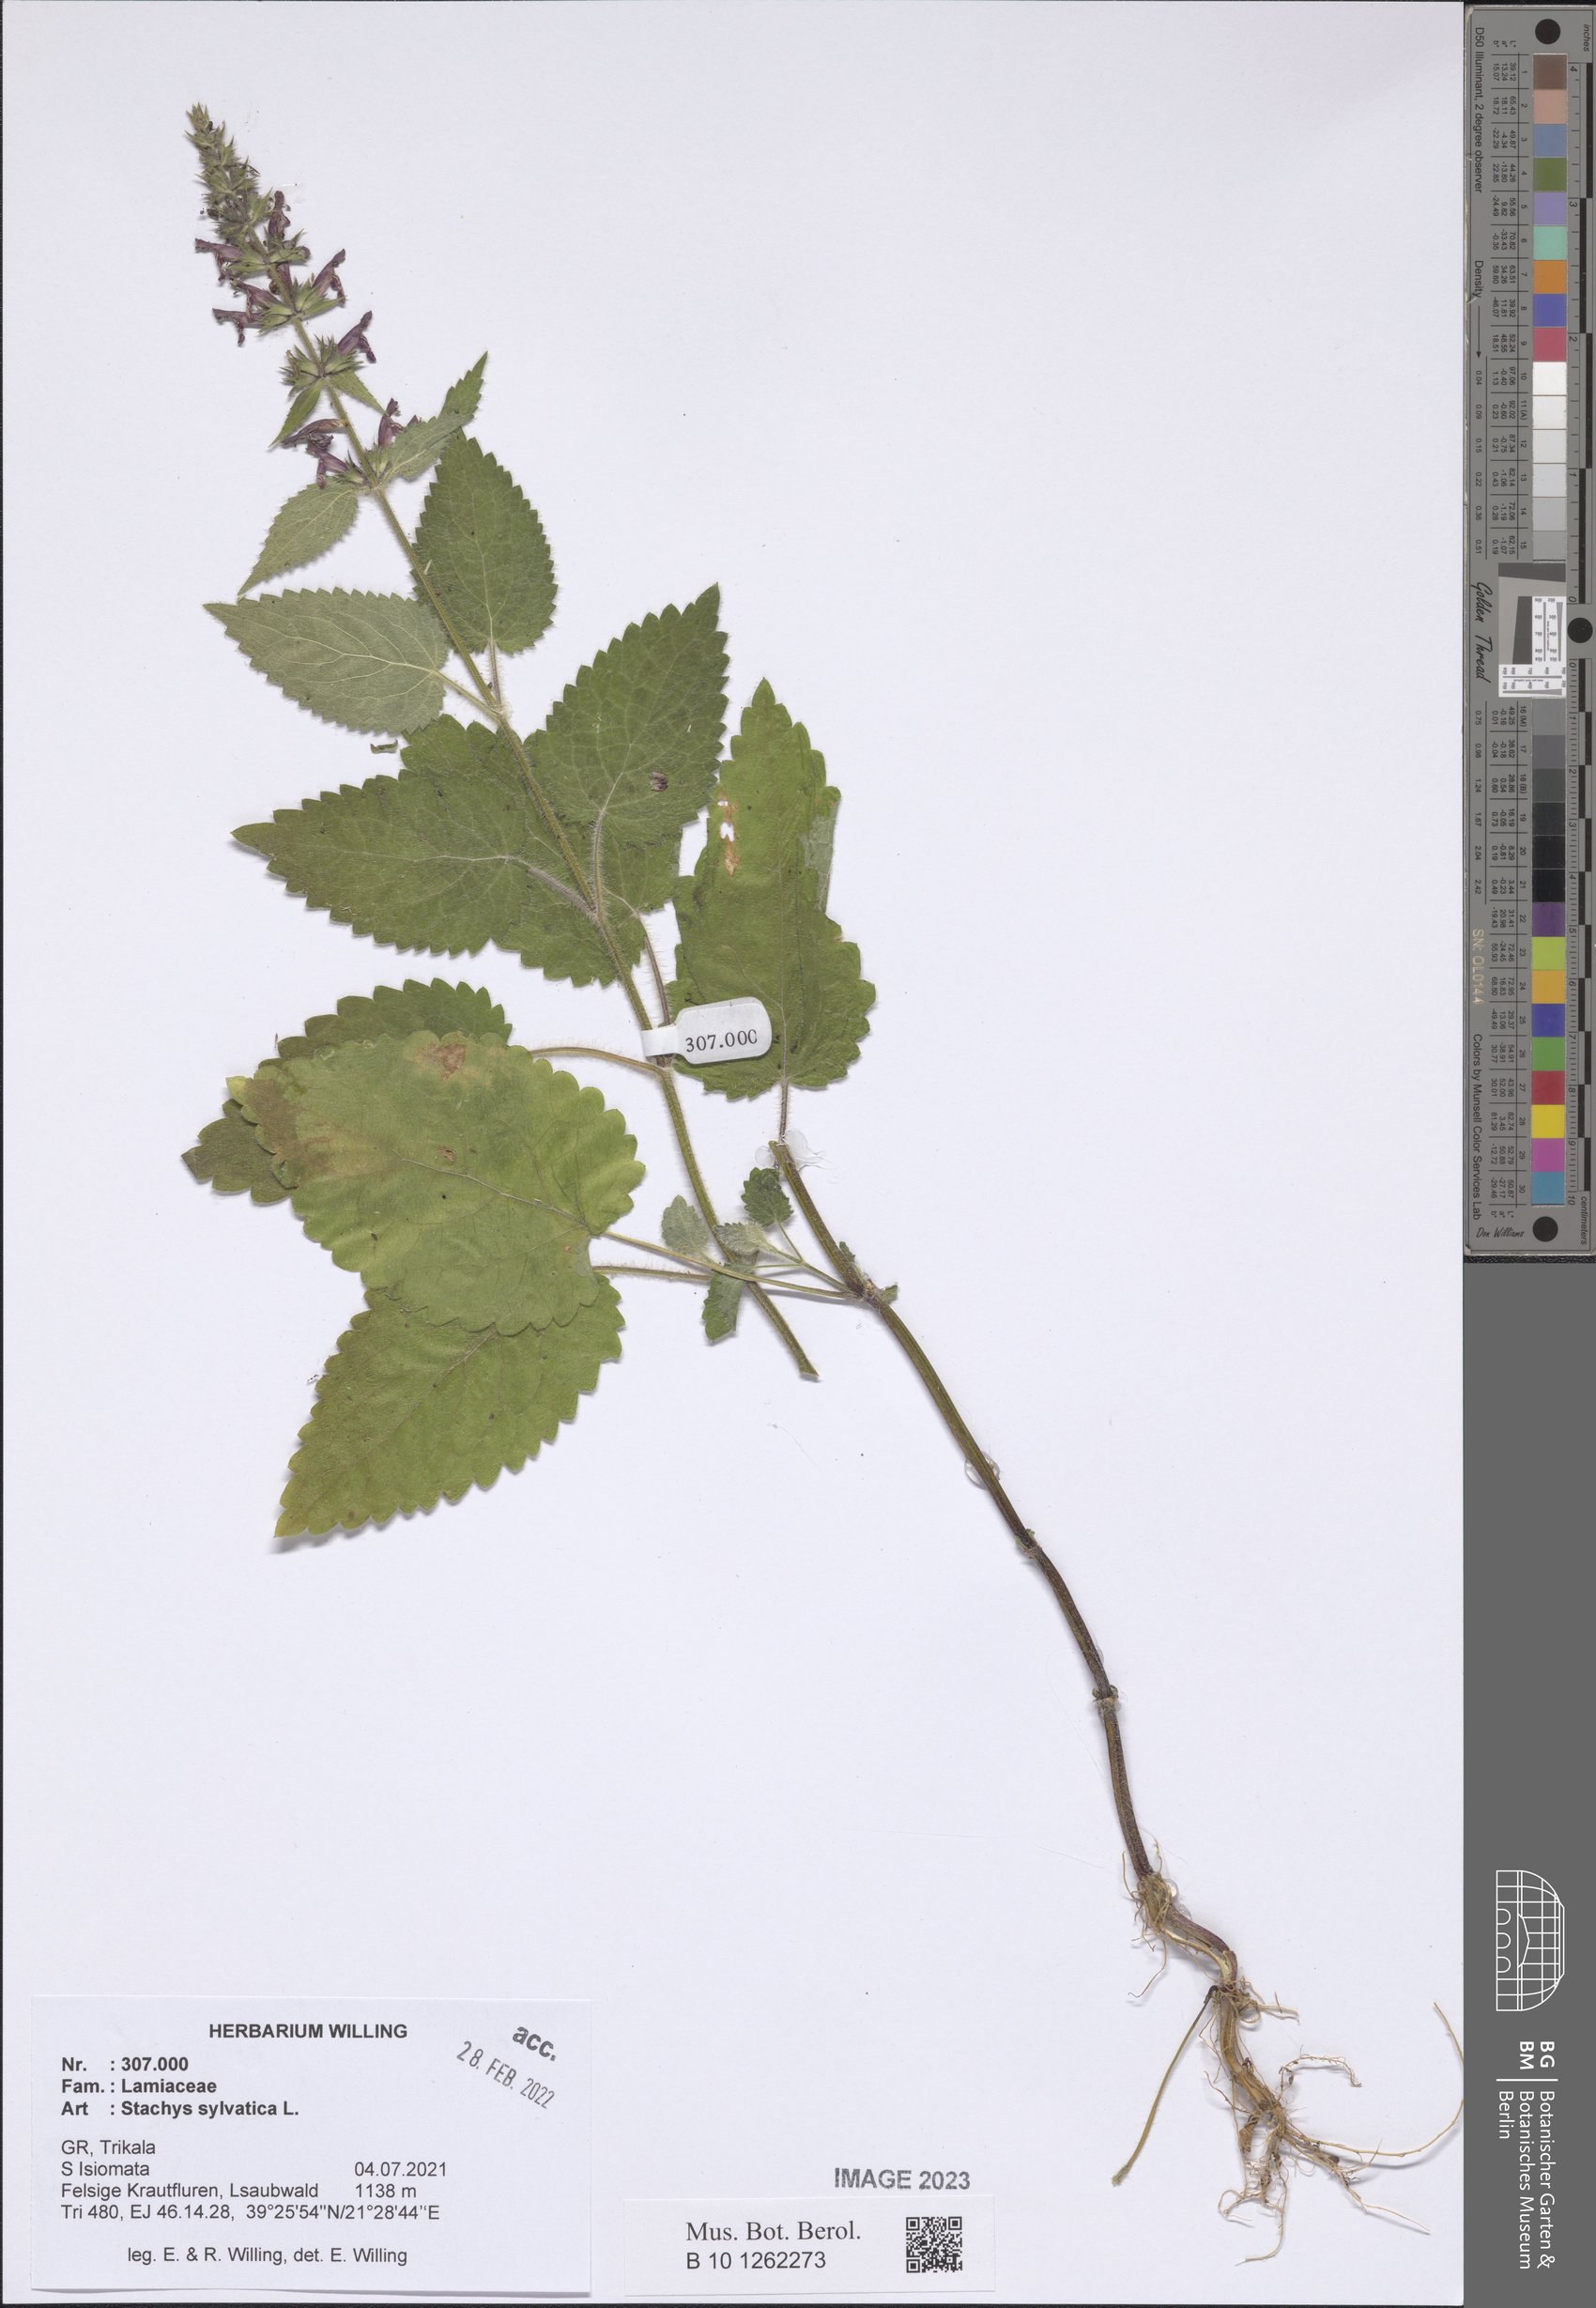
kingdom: Plantae
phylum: Tracheophyta
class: Magnoliopsida
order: Lamiales
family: Lamiaceae
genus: Stachys
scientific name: Stachys sylvatica
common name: Hedge woundwort
